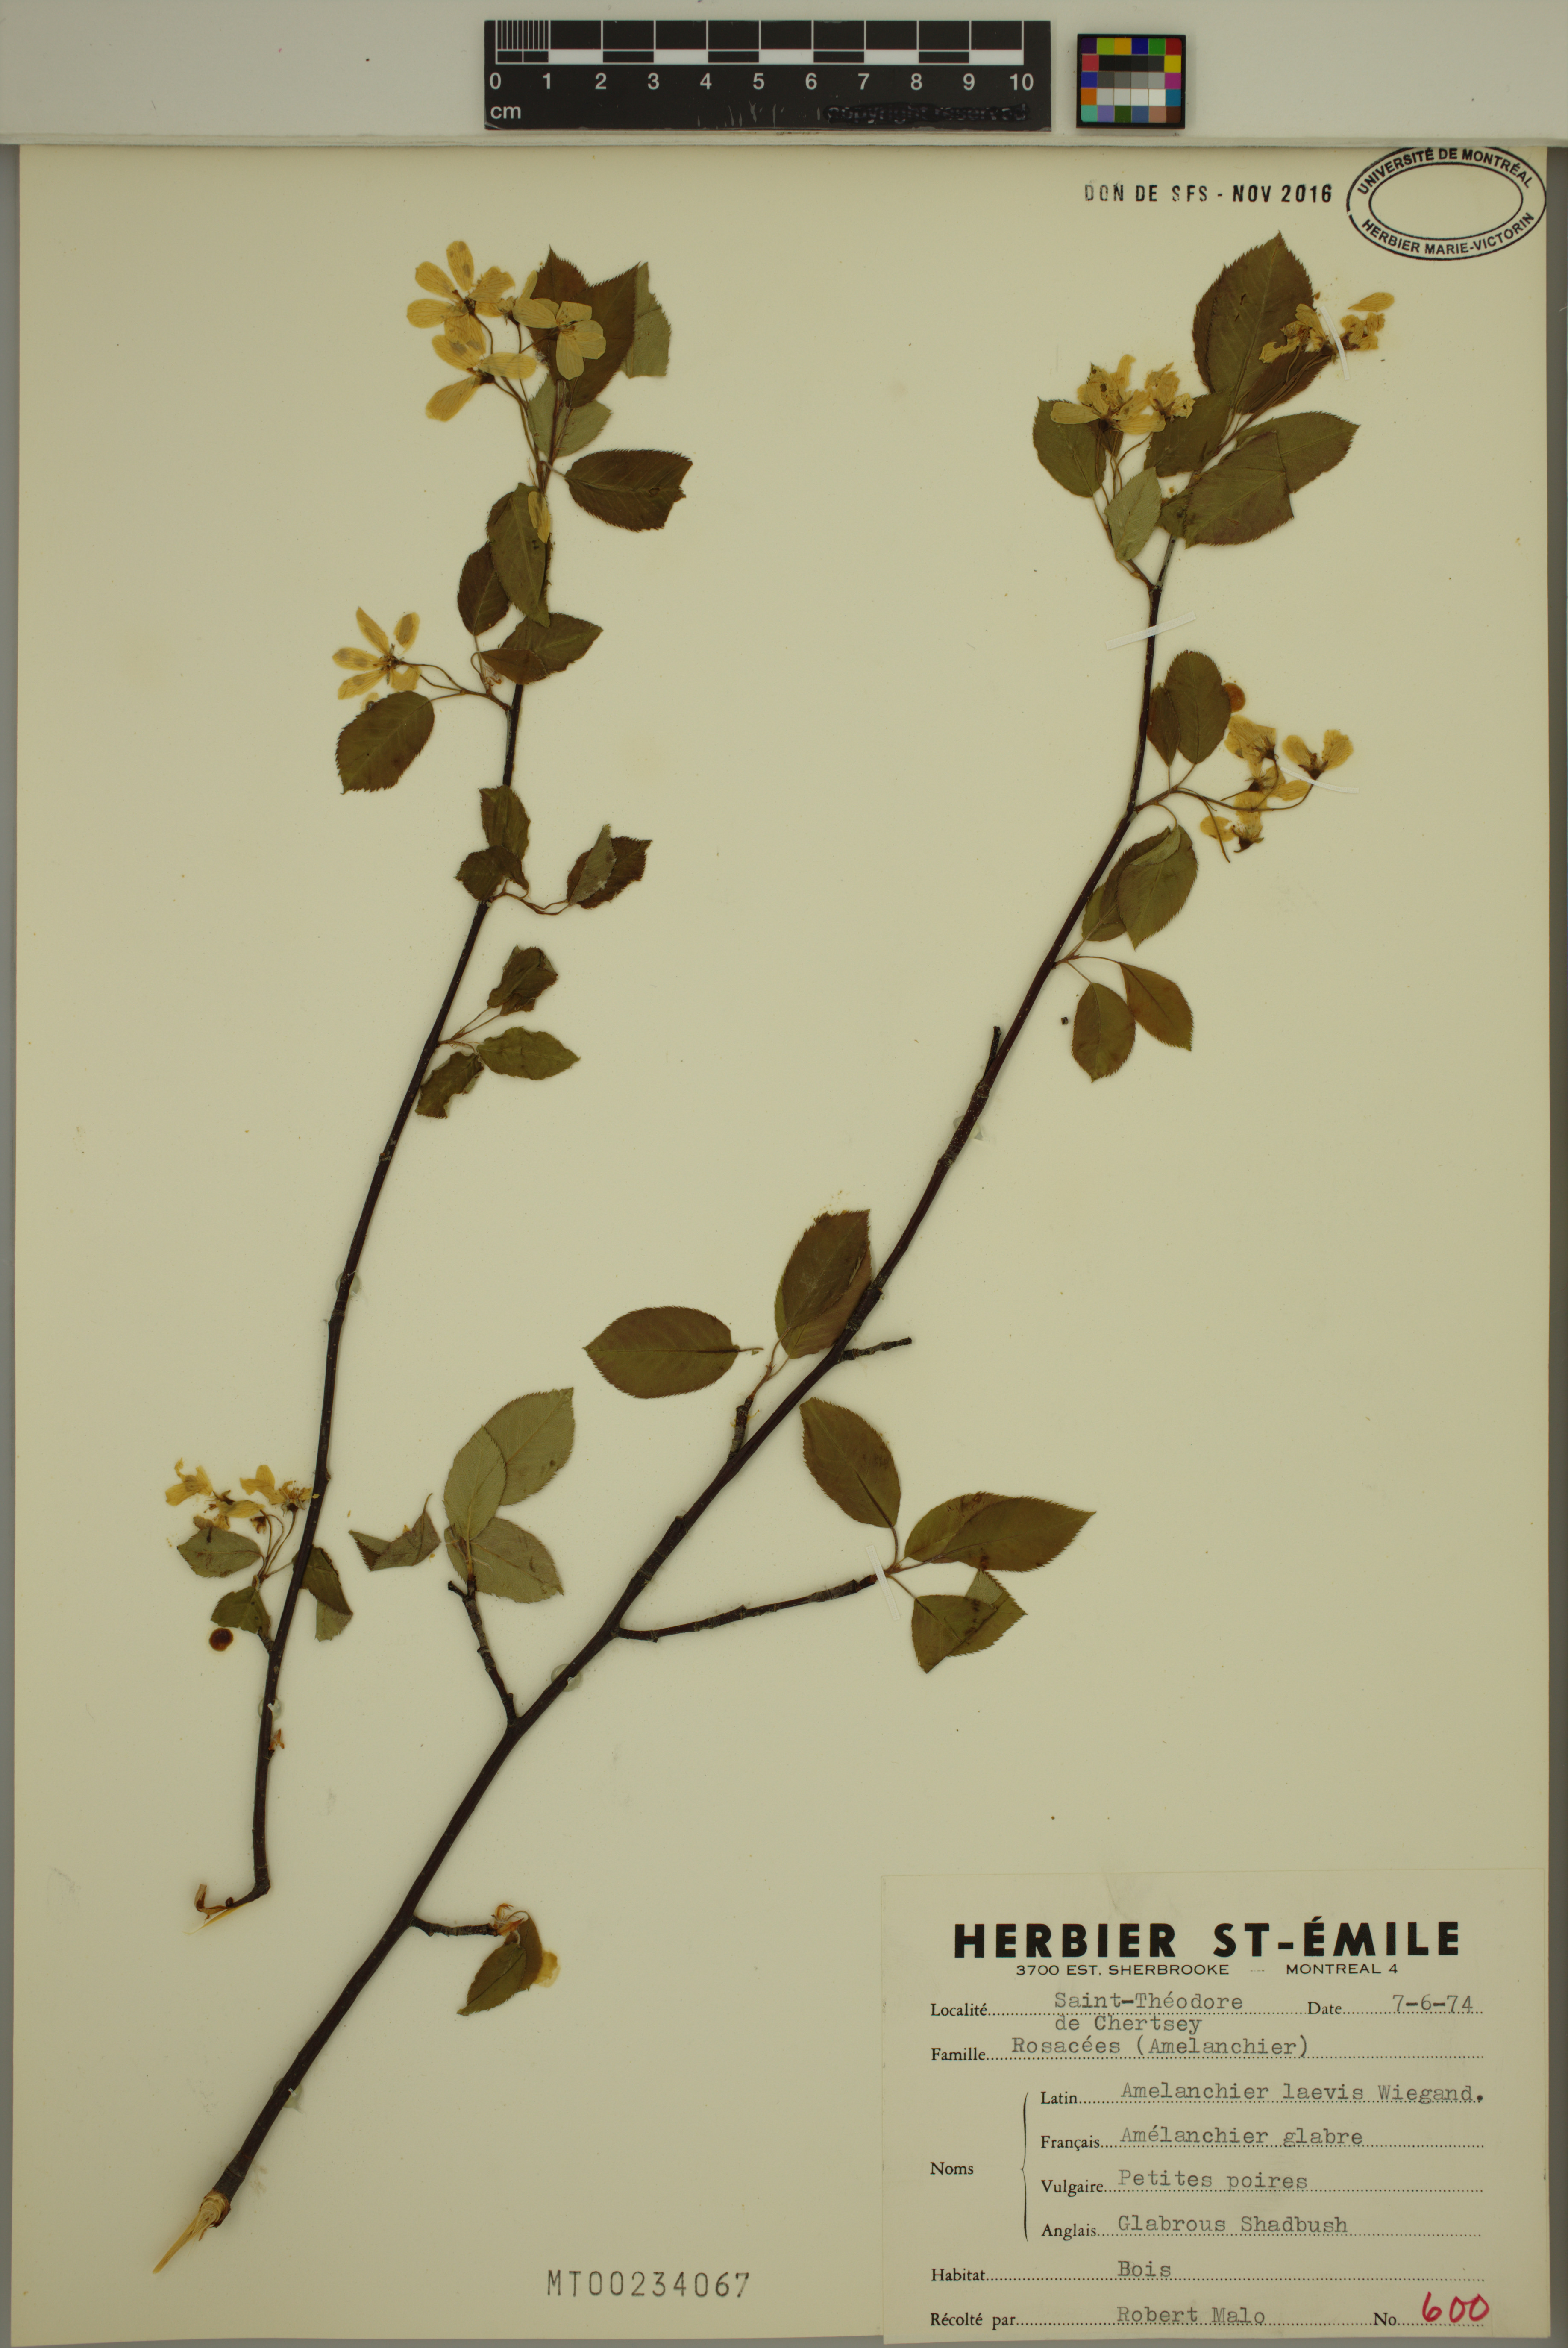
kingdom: Plantae
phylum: Tracheophyta
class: Magnoliopsida
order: Rosales
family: Rosaceae
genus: Amelanchier
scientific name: Amelanchier laevis
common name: Allegheny serviceberry
